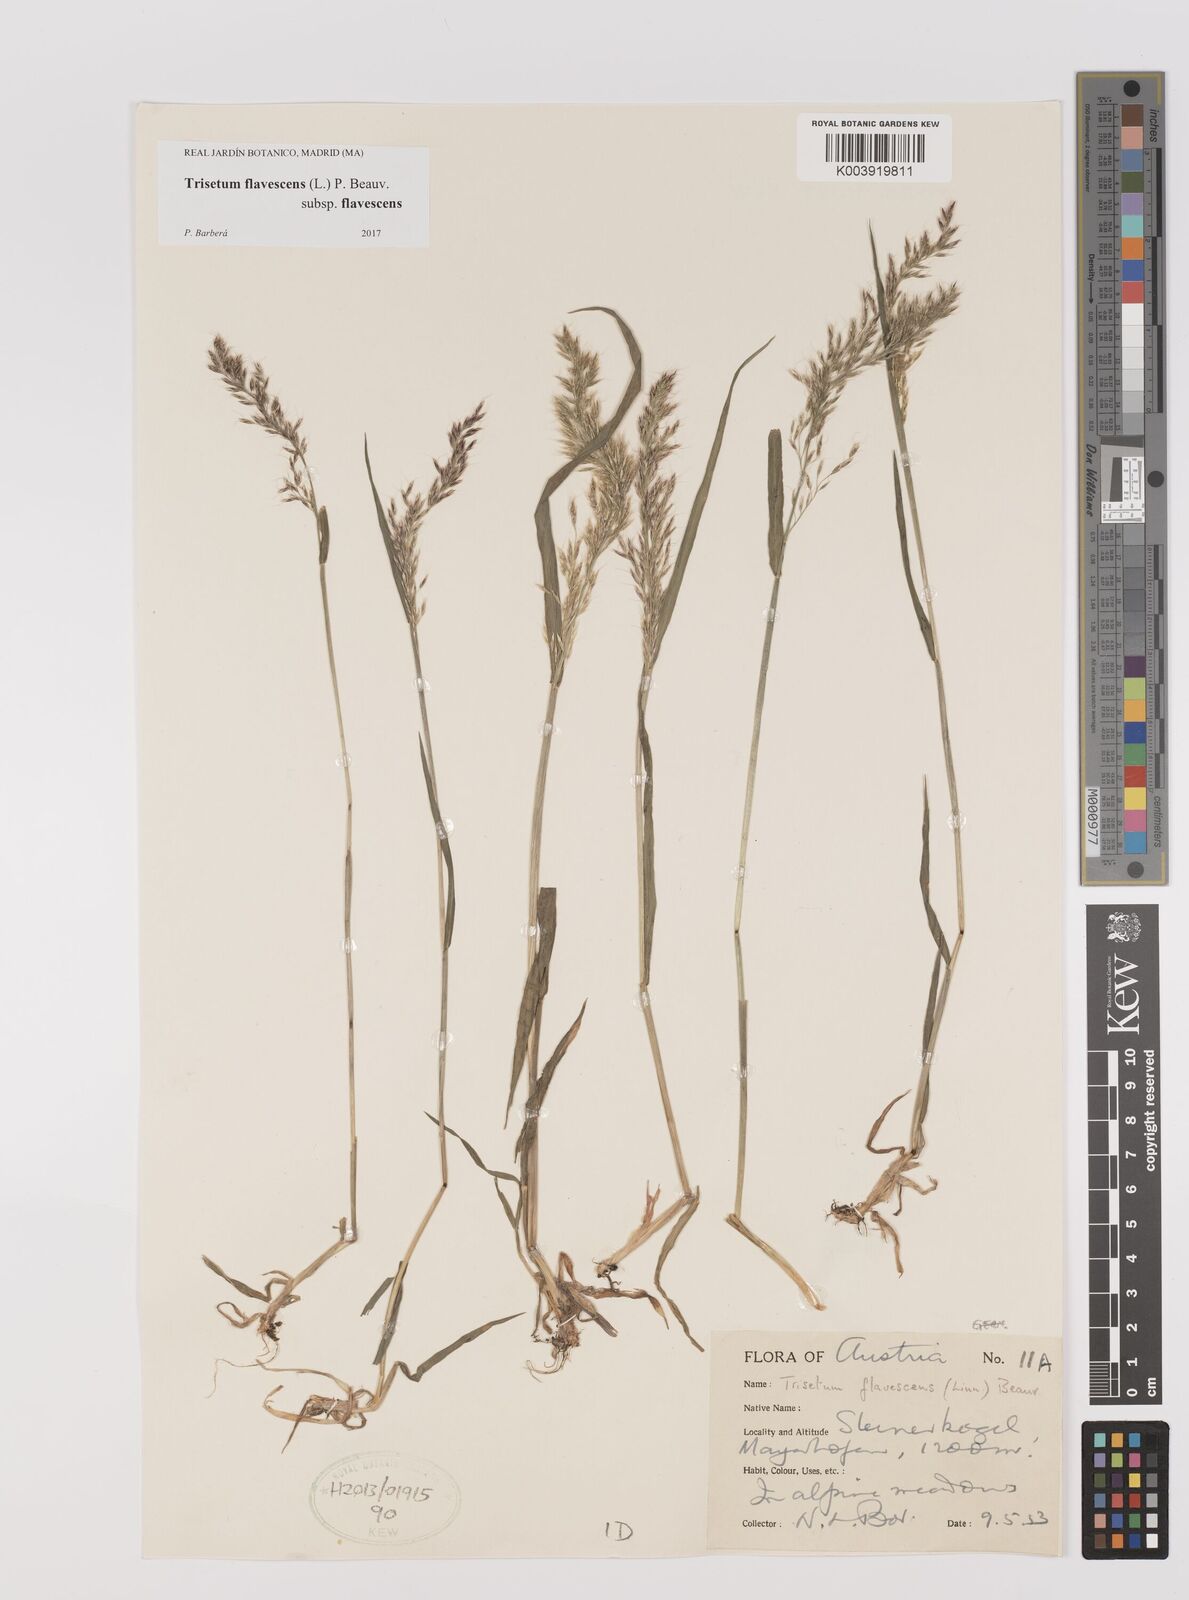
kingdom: Plantae
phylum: Tracheophyta
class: Liliopsida
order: Poales
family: Poaceae
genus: Trisetum
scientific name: Trisetum flavescens
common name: Yellow oat-grass
